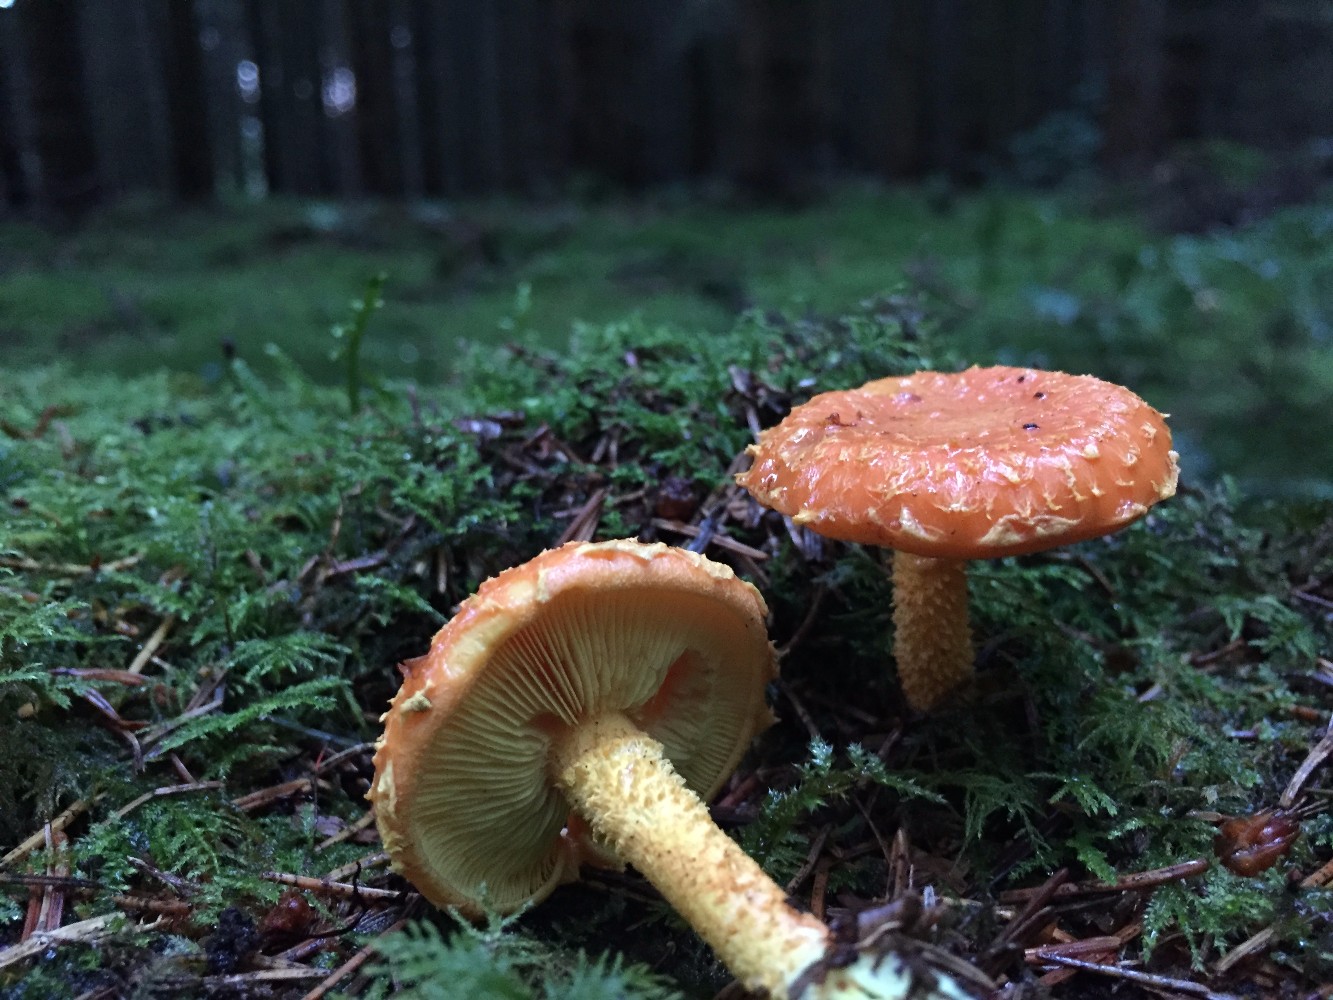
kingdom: Fungi
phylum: Basidiomycota
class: Agaricomycetes
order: Agaricales
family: Strophariaceae
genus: Pholiota
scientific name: Pholiota flammans
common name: flamme-skælhat
